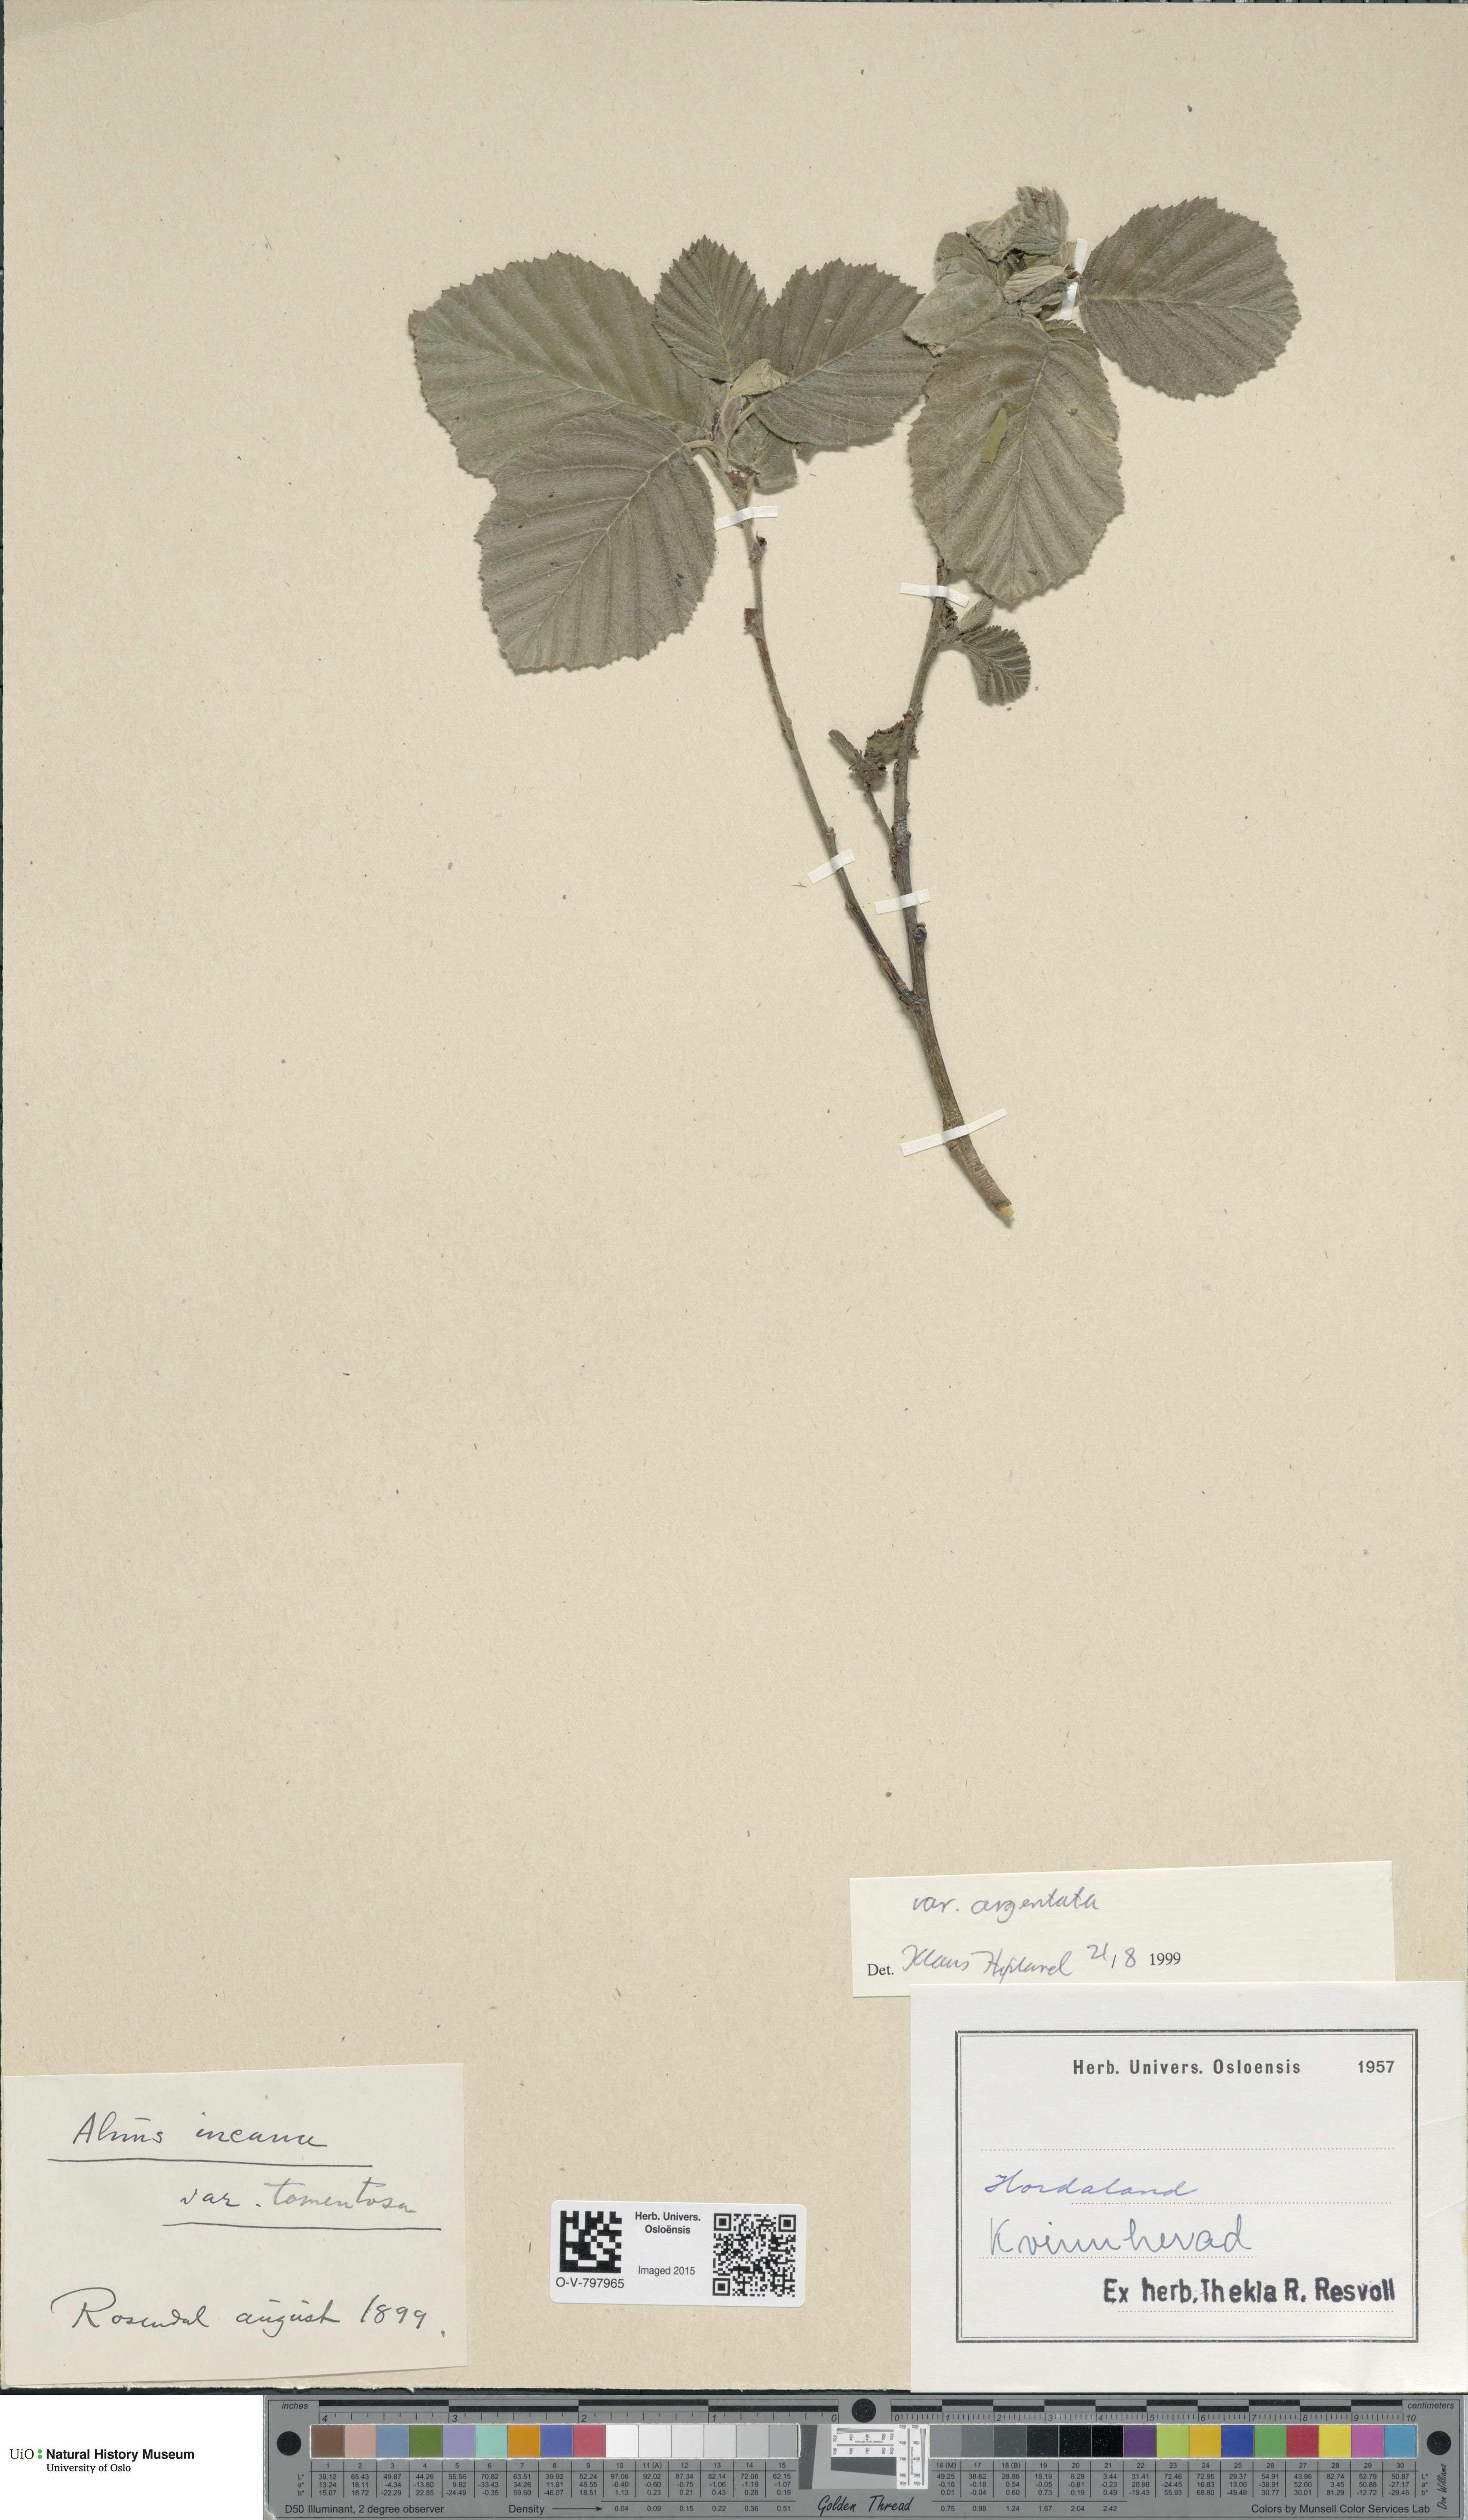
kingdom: Plantae
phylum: Tracheophyta
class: Magnoliopsida
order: Fagales
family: Betulaceae
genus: Alnus
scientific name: Alnus incana
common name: Grey alder
